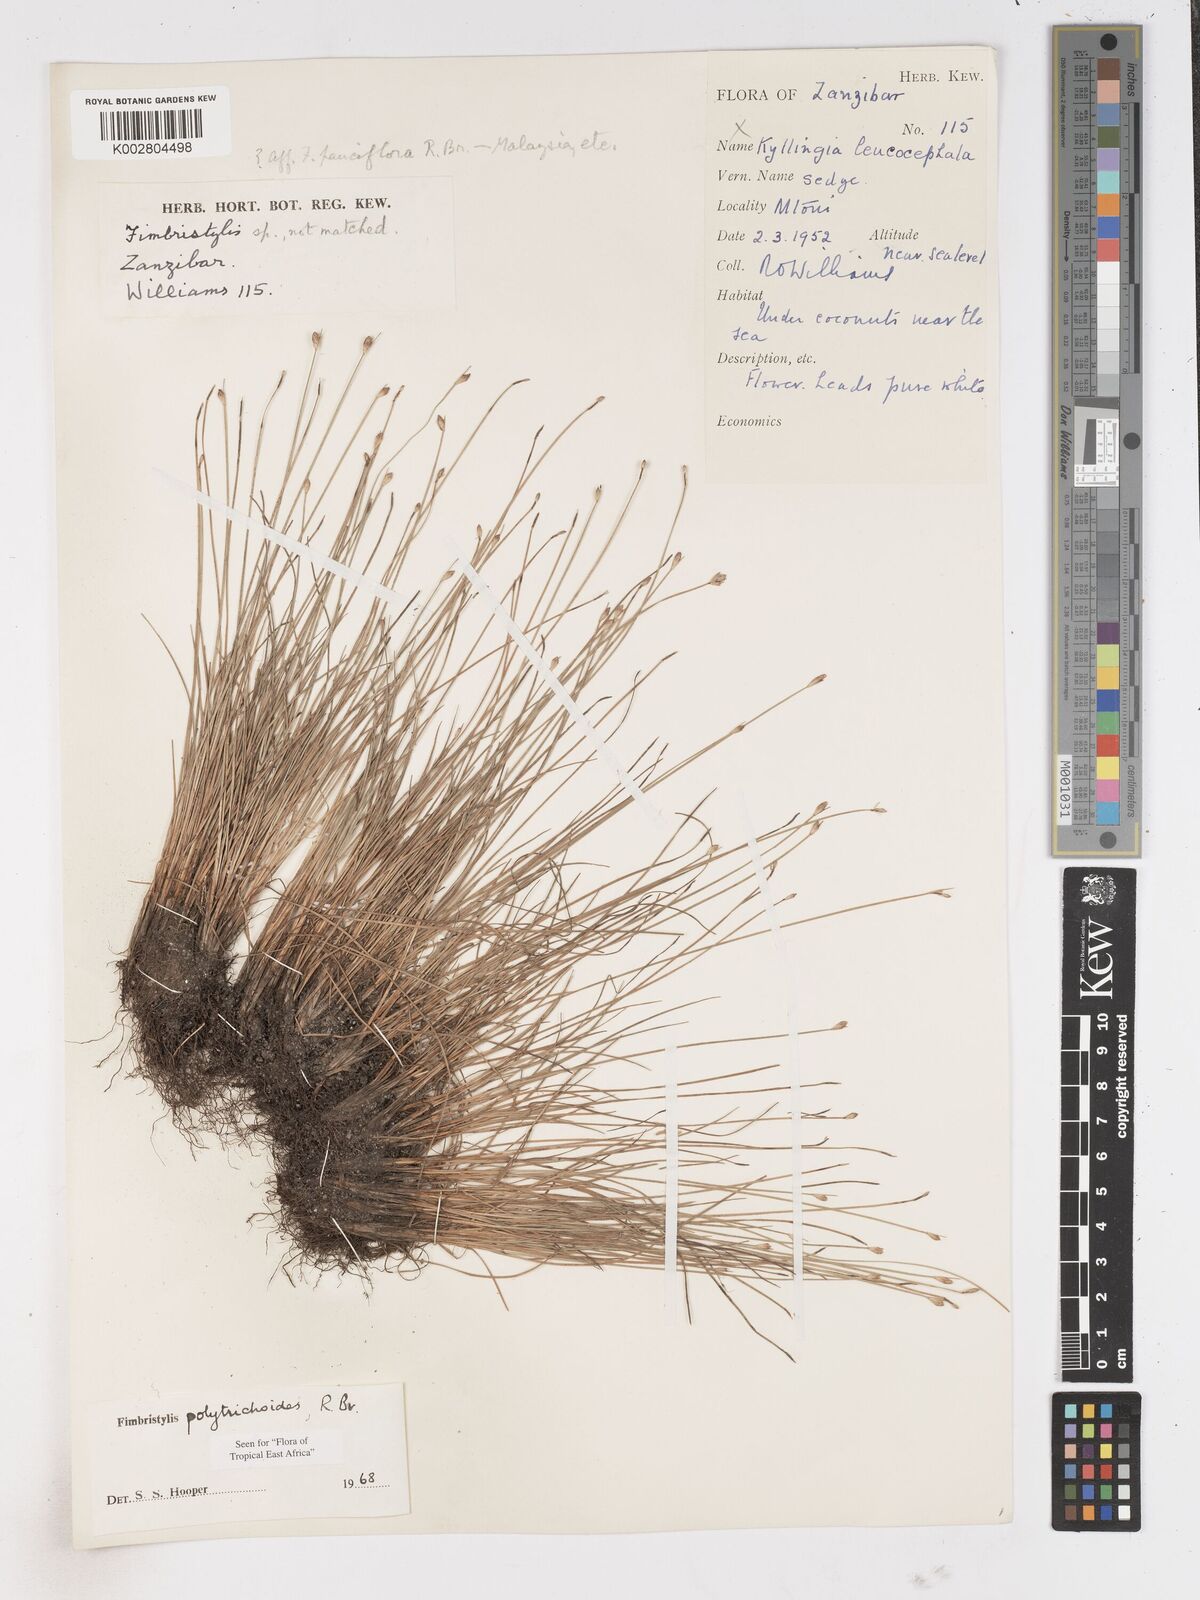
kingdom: Plantae
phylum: Tracheophyta
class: Liliopsida
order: Poales
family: Cyperaceae
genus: Fimbristylis
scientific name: Fimbristylis polytrichoides
